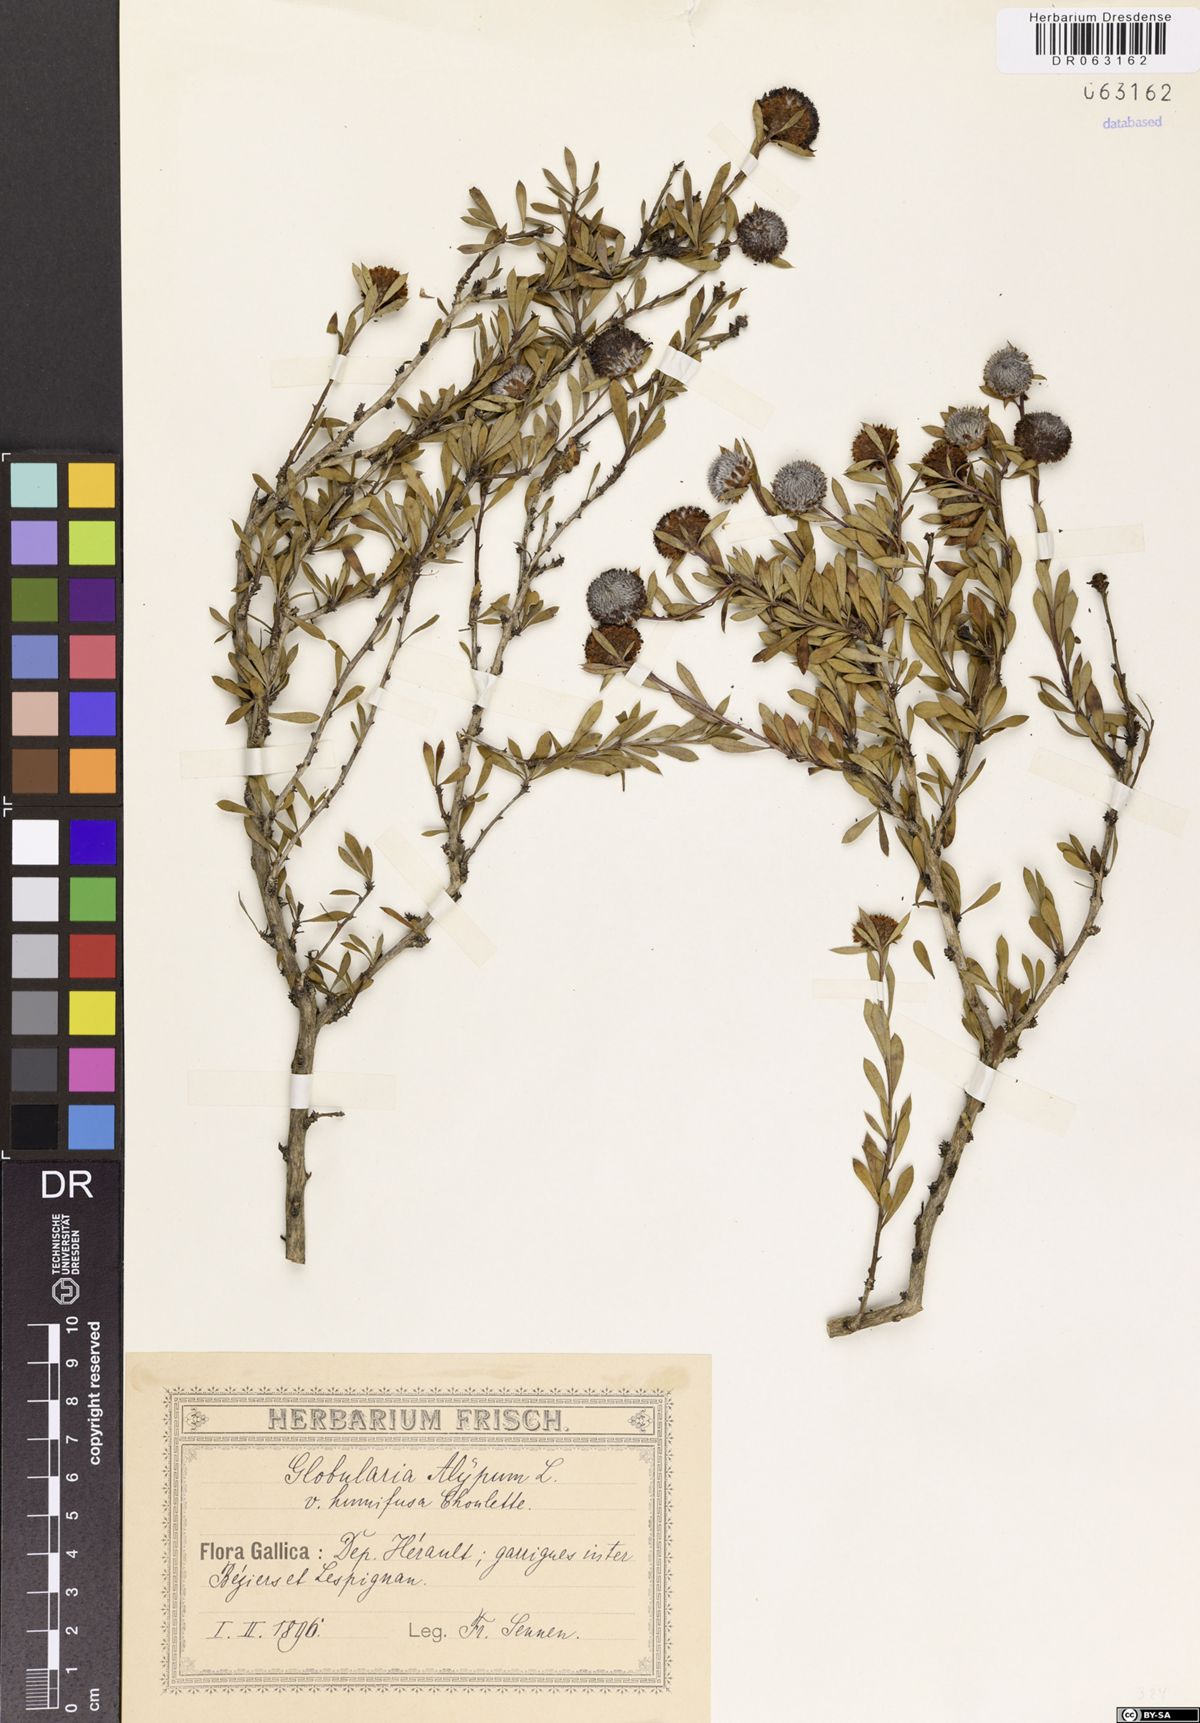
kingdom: Plantae
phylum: Tracheophyta
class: Magnoliopsida
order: Lamiales
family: Plantaginaceae
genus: Globularia
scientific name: Globularia alypum
